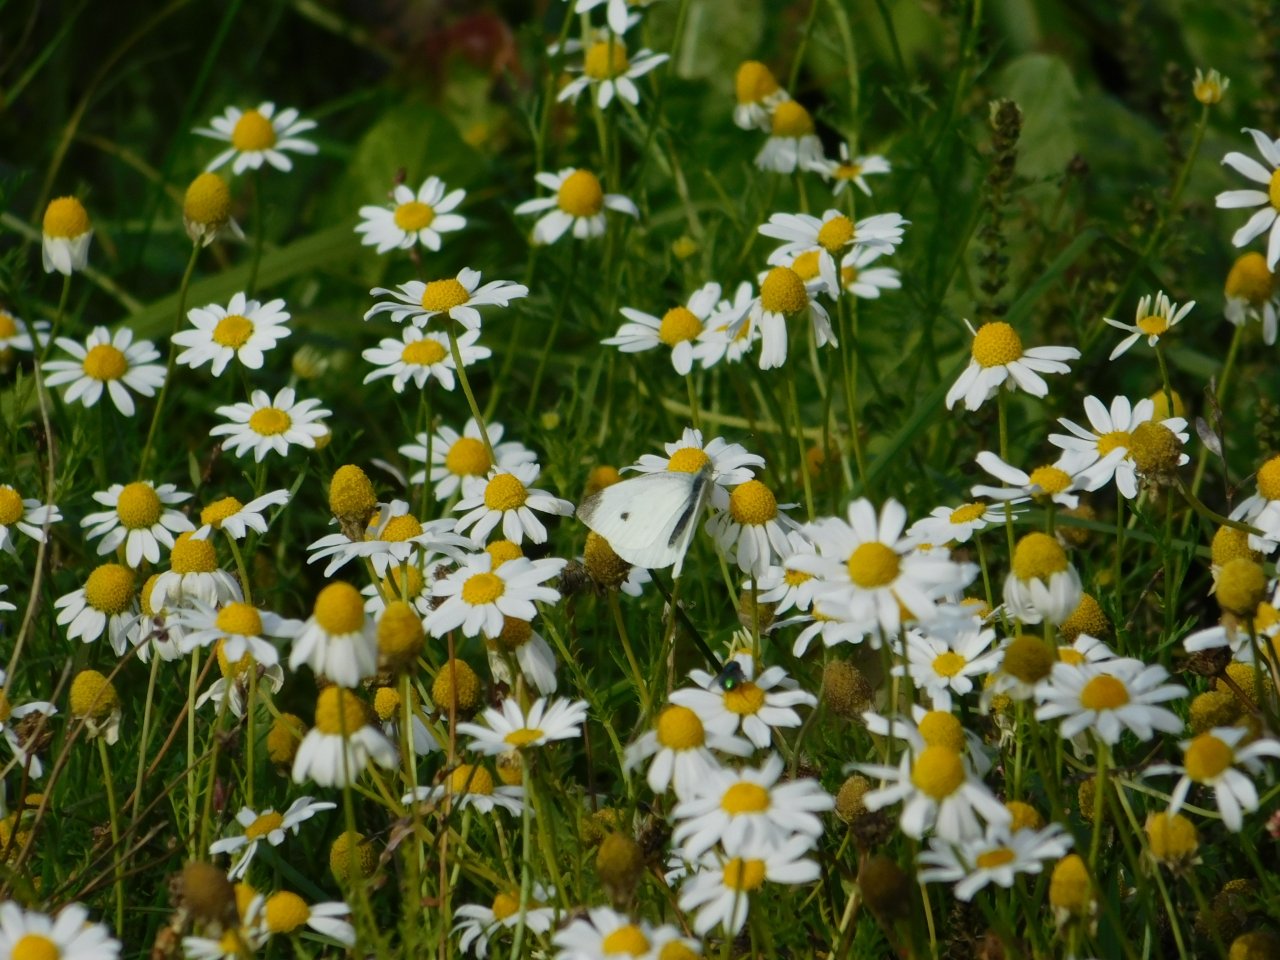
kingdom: Animalia
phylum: Arthropoda
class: Insecta
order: Lepidoptera
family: Pieridae
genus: Pieris
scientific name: Pieris rapae
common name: Cabbage White
